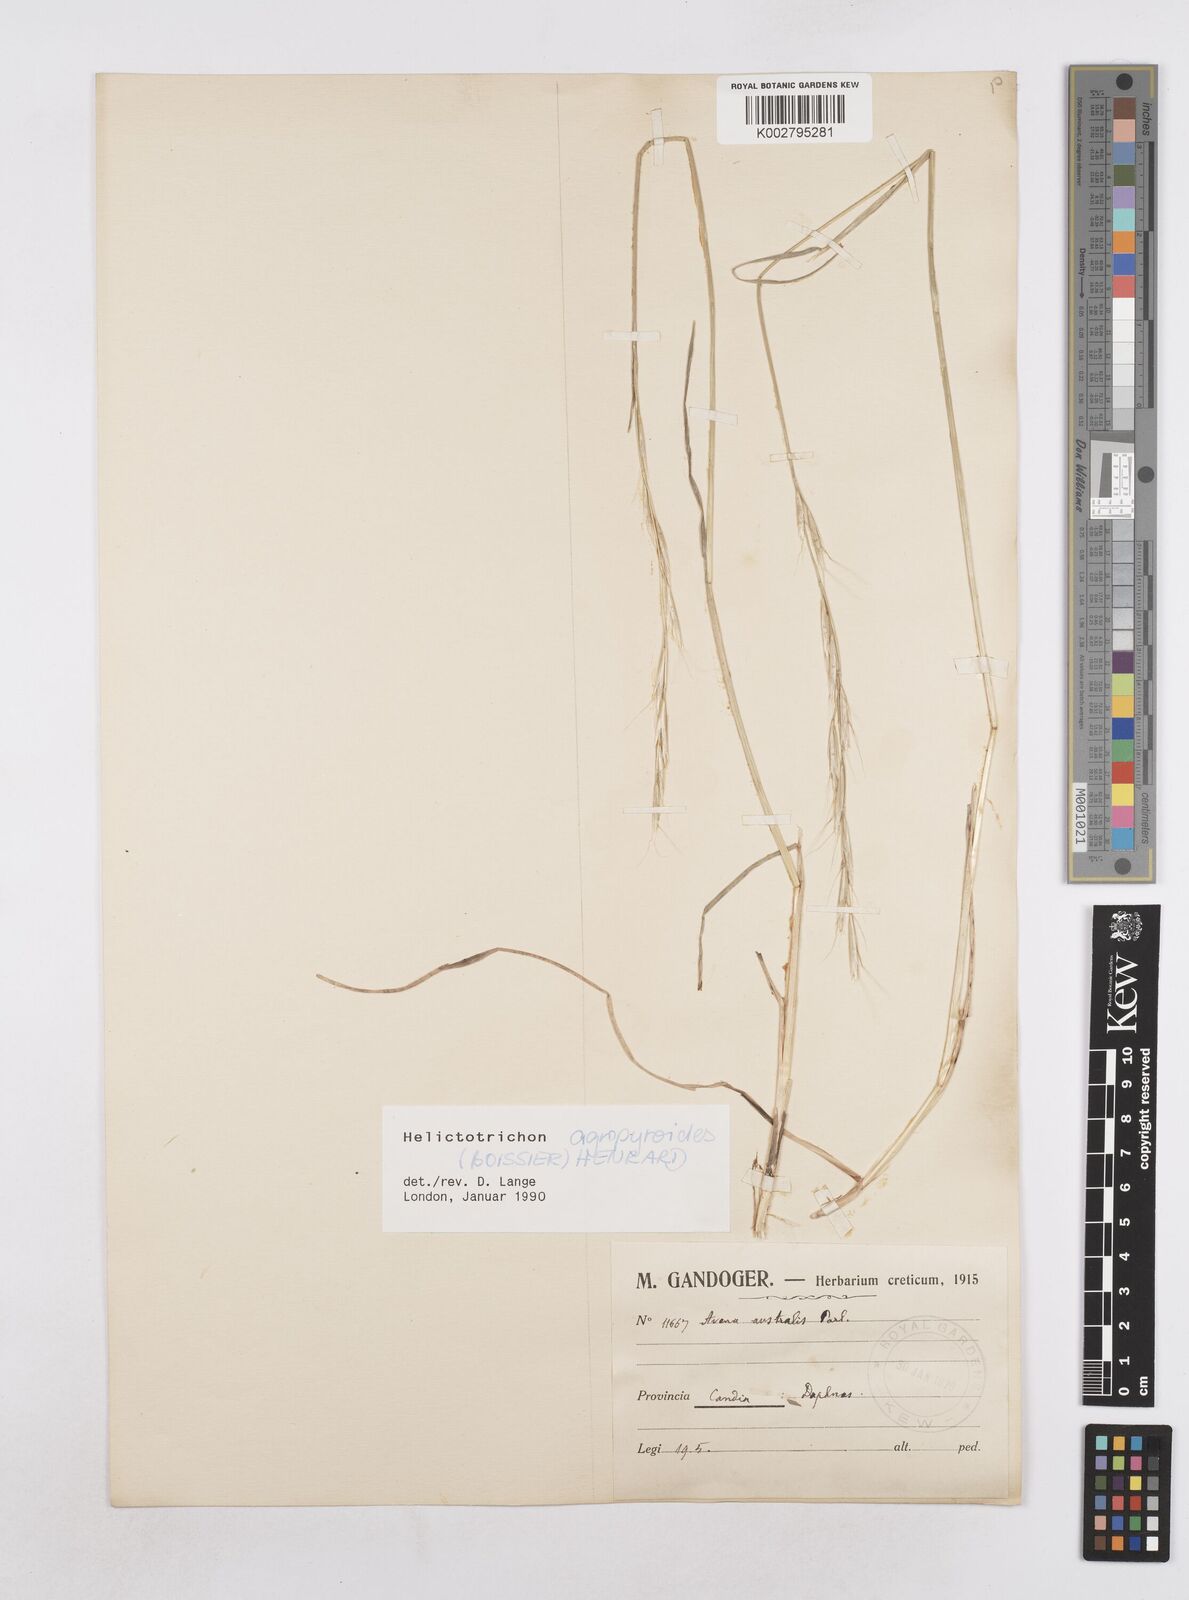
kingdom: Plantae
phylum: Tracheophyta
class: Liliopsida
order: Poales
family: Poaceae
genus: Helictochloa
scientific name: Helictochloa agropyroides
